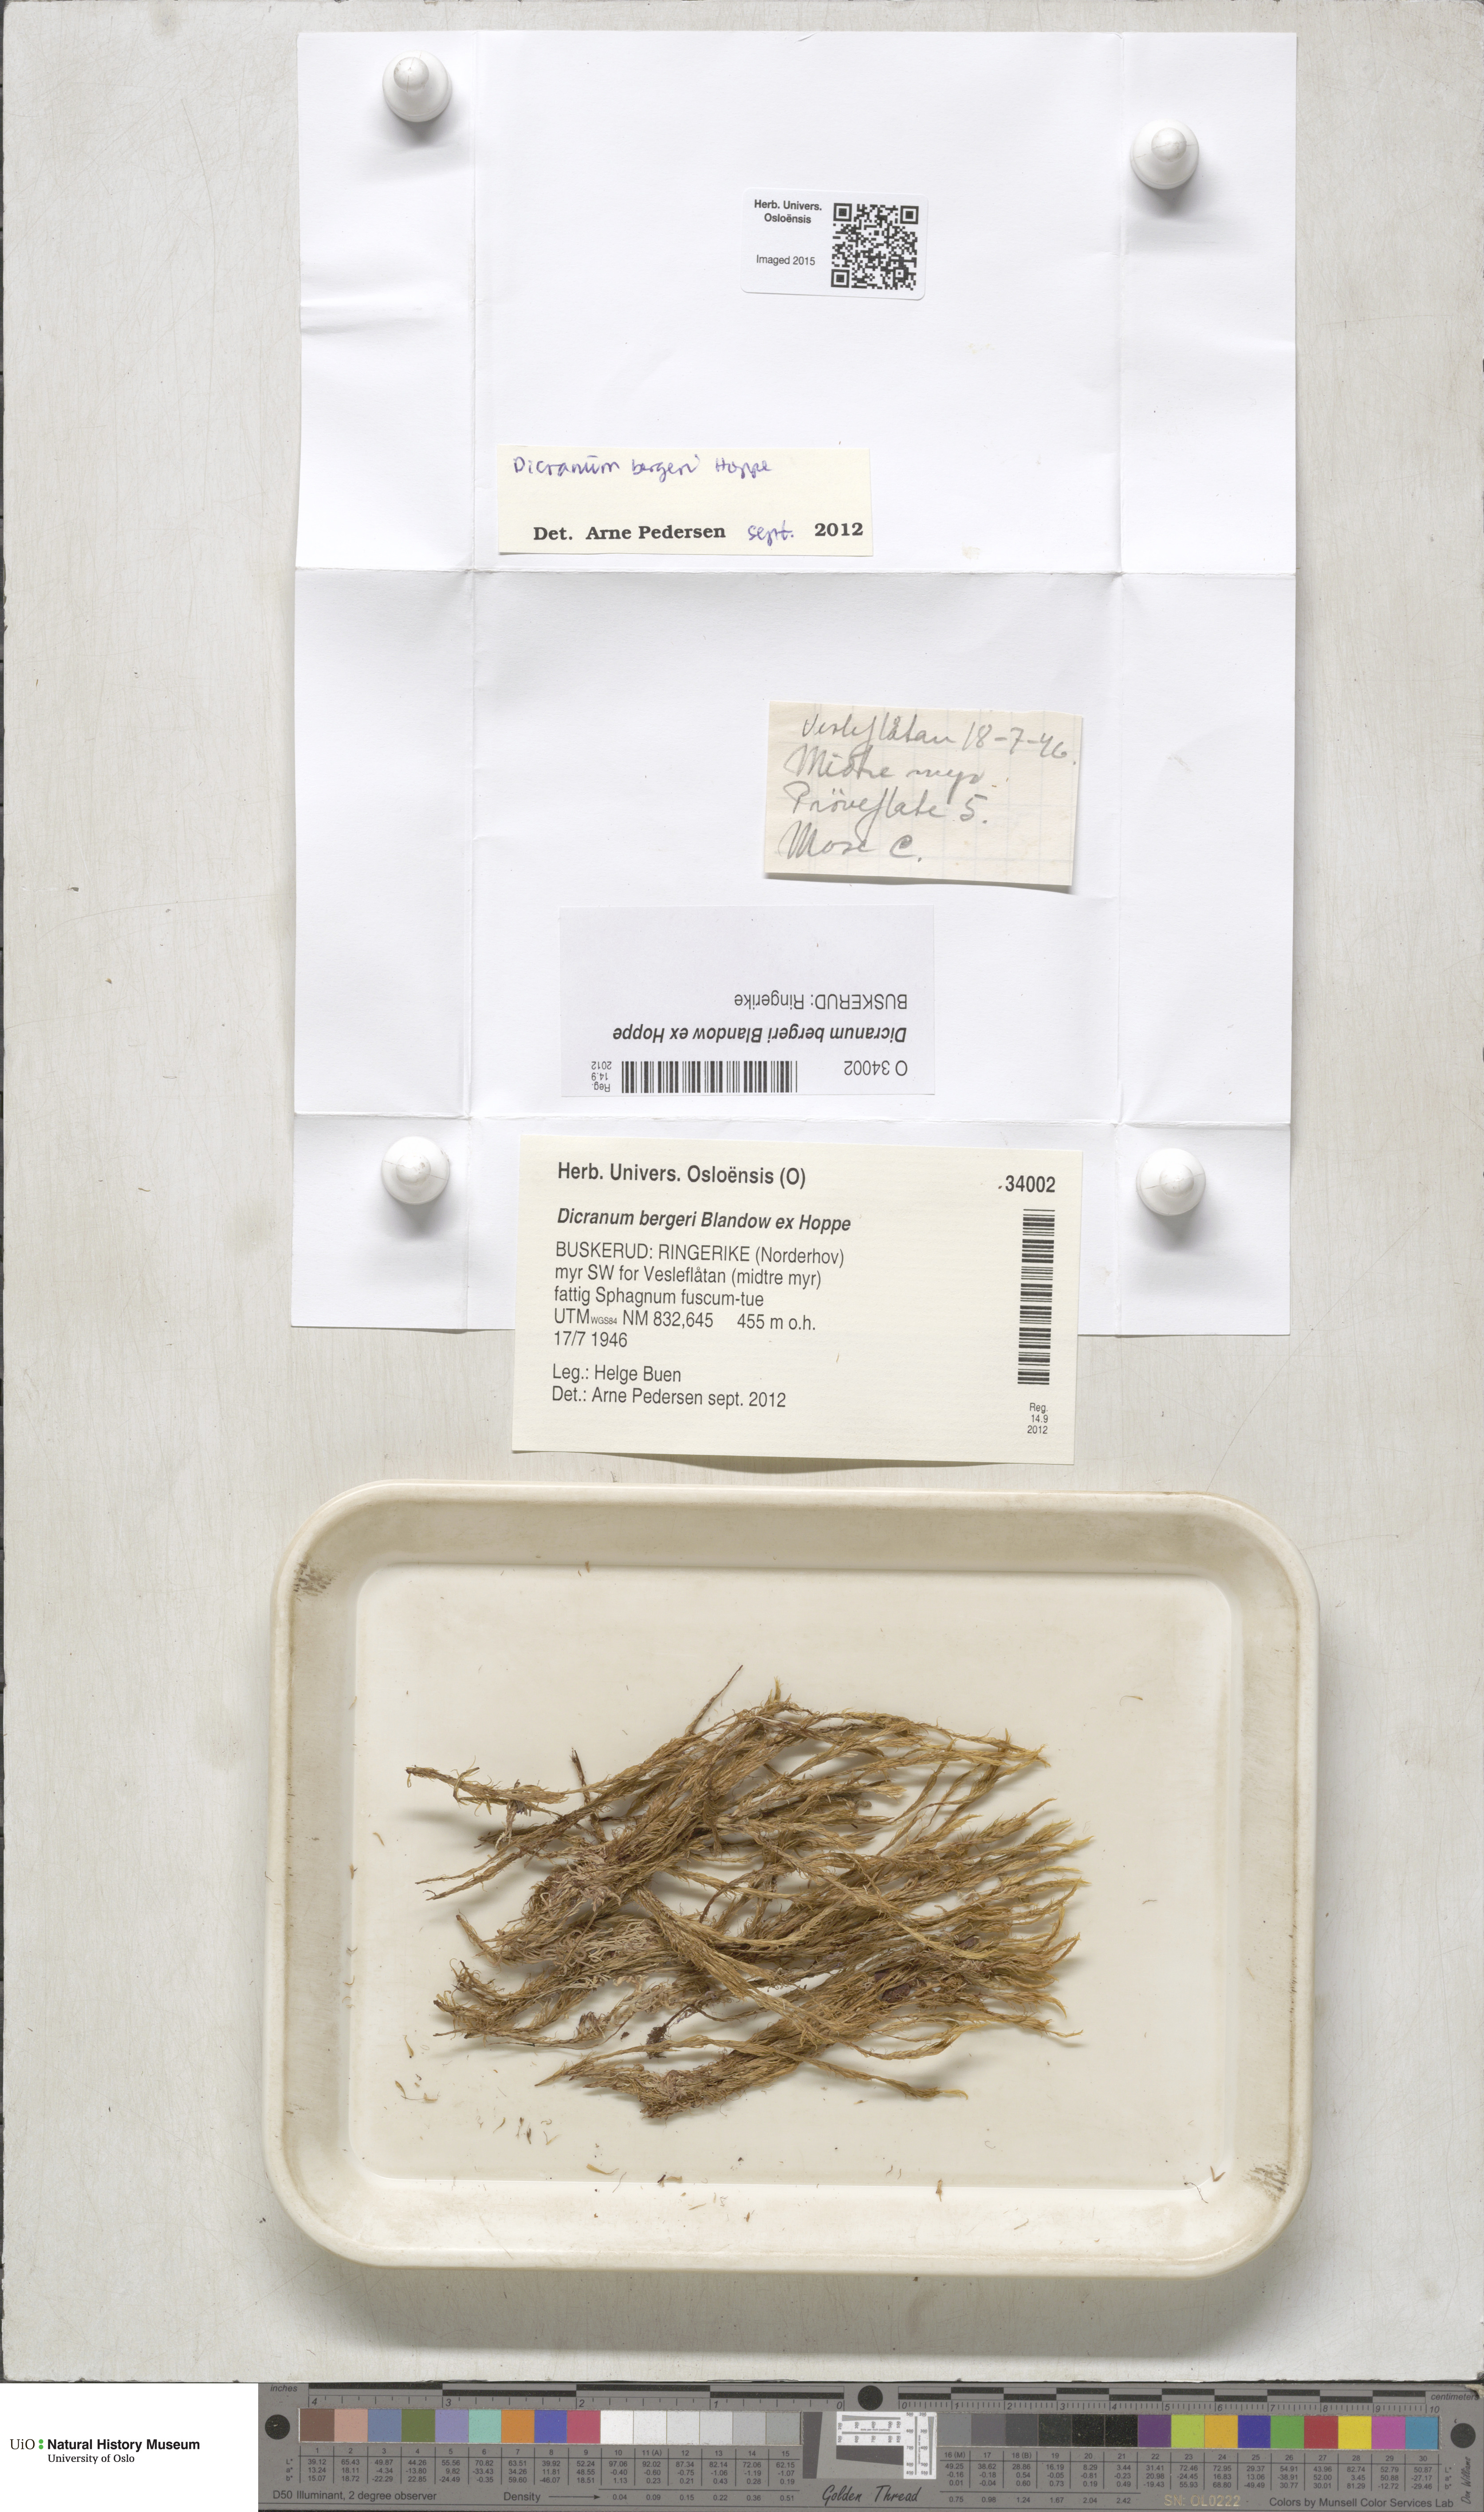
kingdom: Plantae
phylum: Bryophyta
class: Bryopsida
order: Dicranales
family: Dicranaceae
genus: Dicranum
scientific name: Dicranum undulatum
